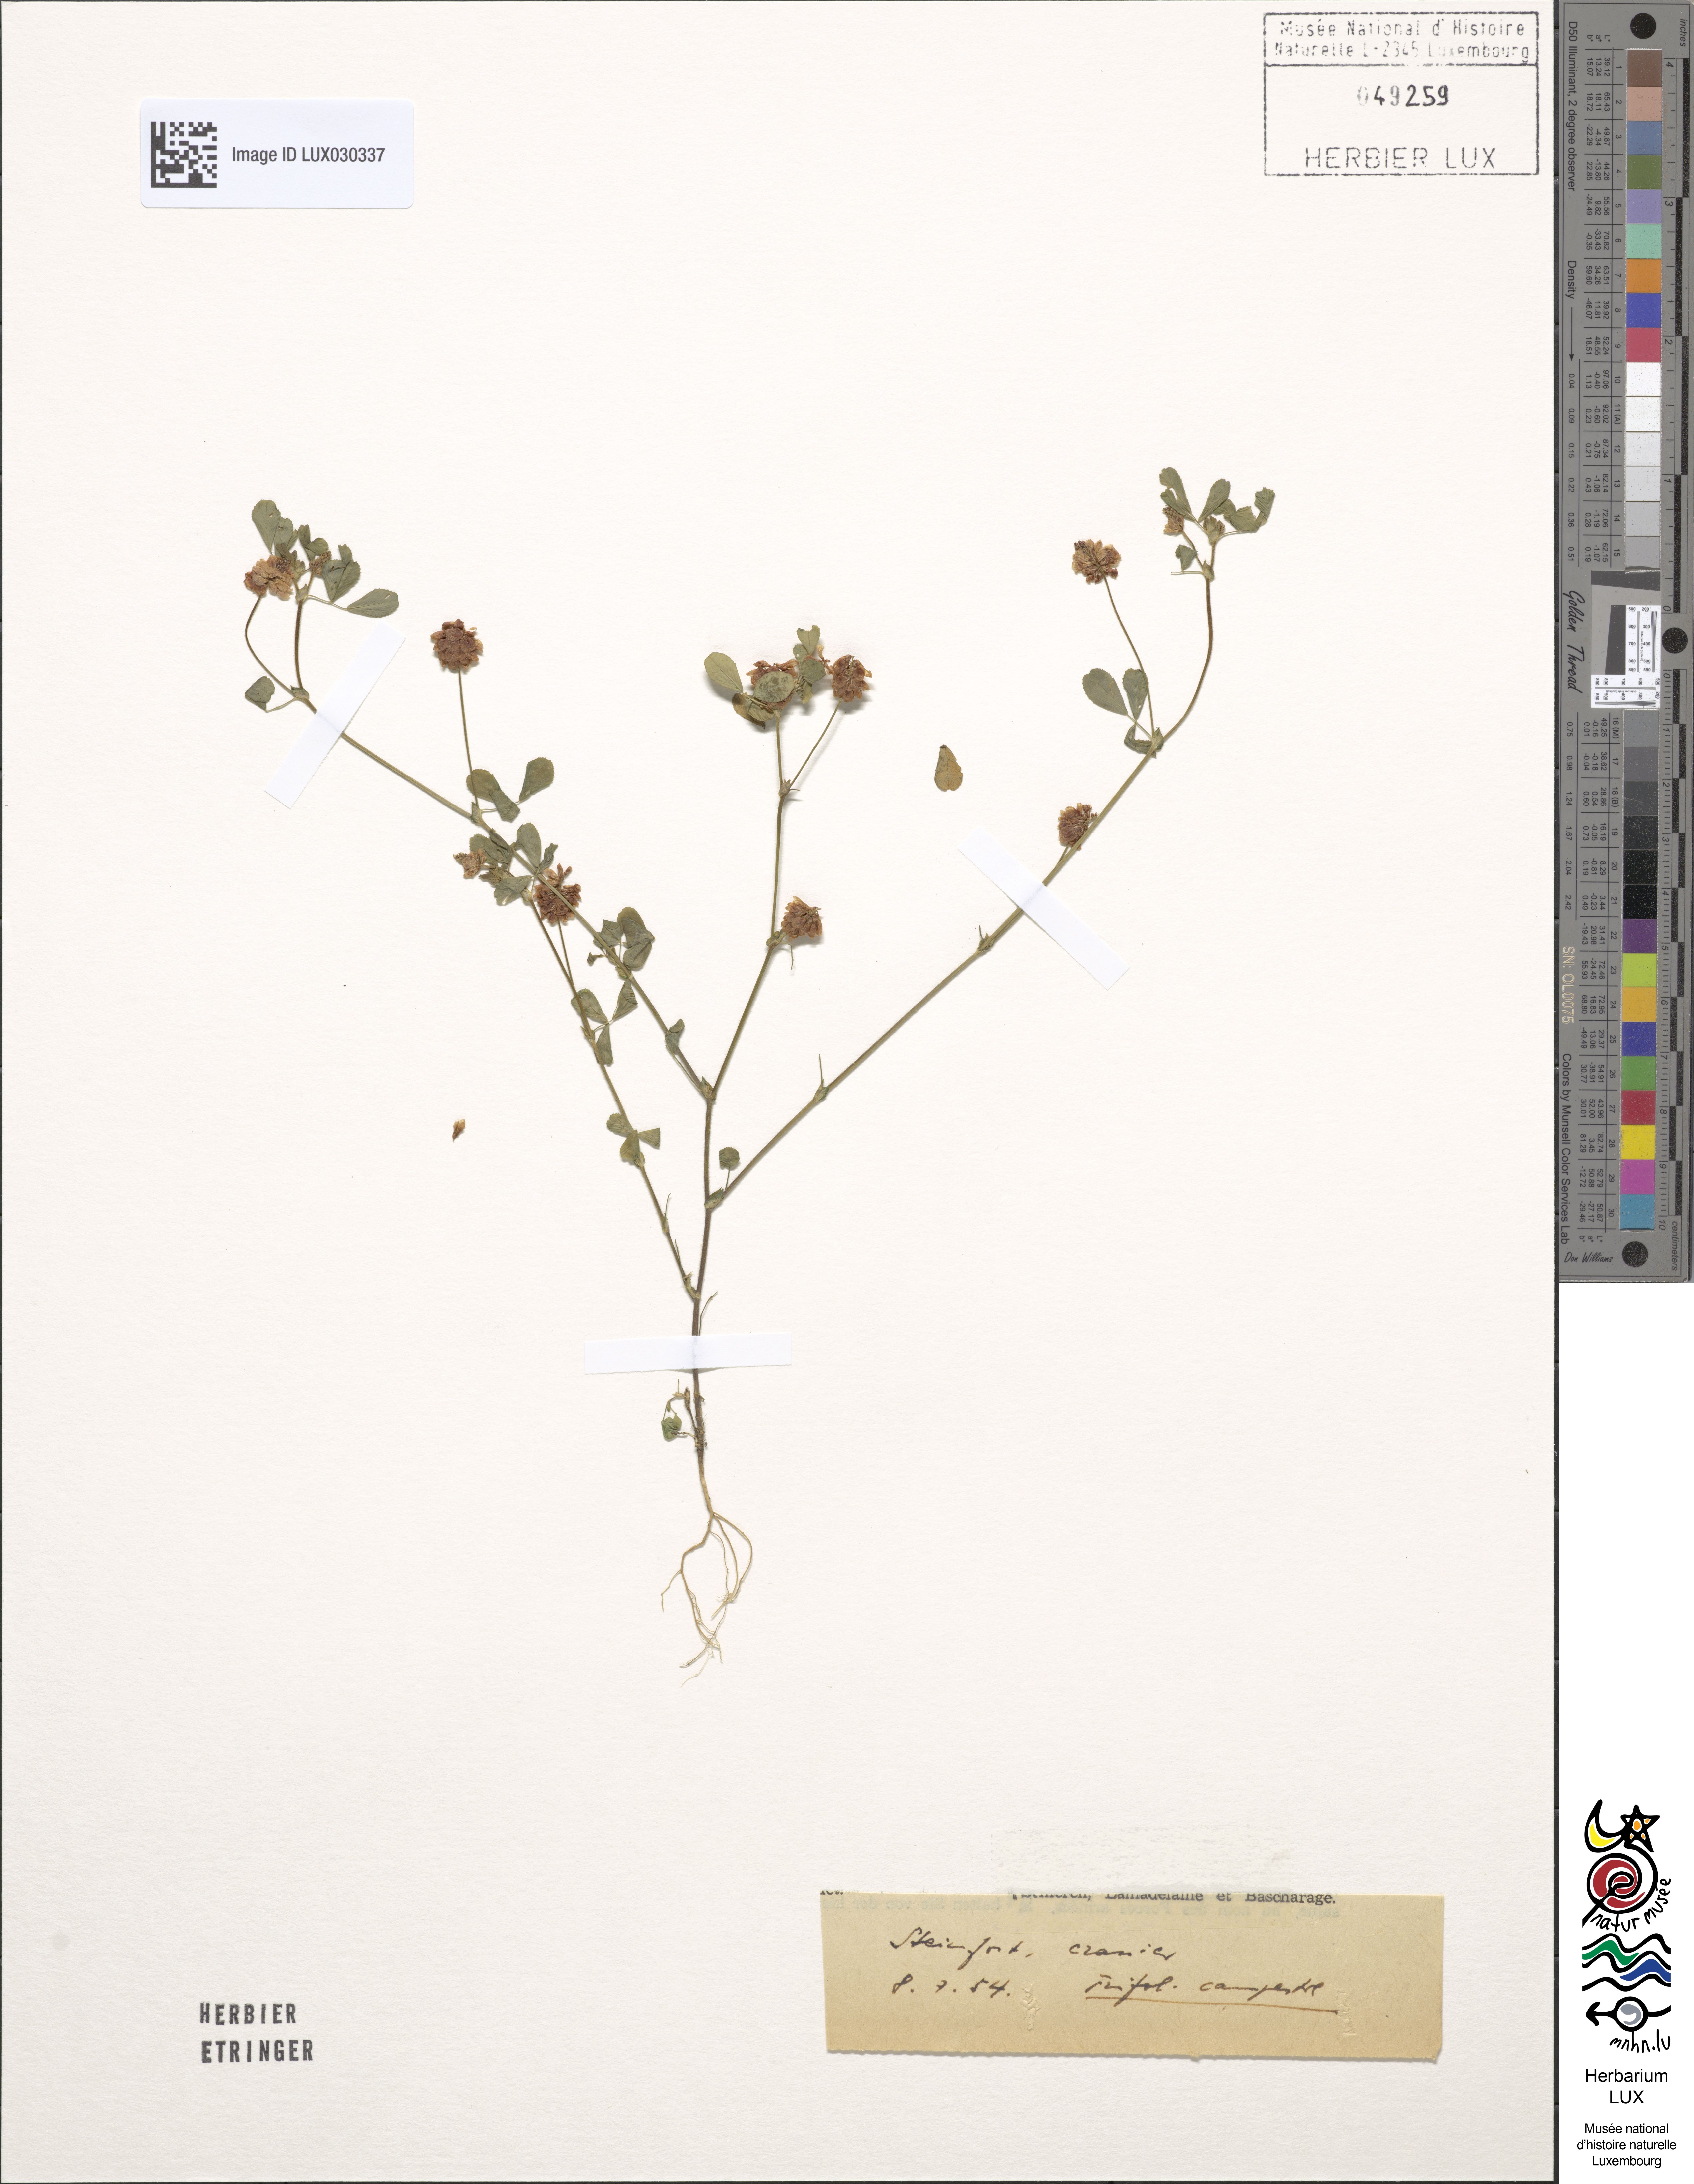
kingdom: Plantae
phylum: Tracheophyta
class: Magnoliopsida
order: Fabales
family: Fabaceae
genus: Trifolium
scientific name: Trifolium campestre
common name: Field clover
